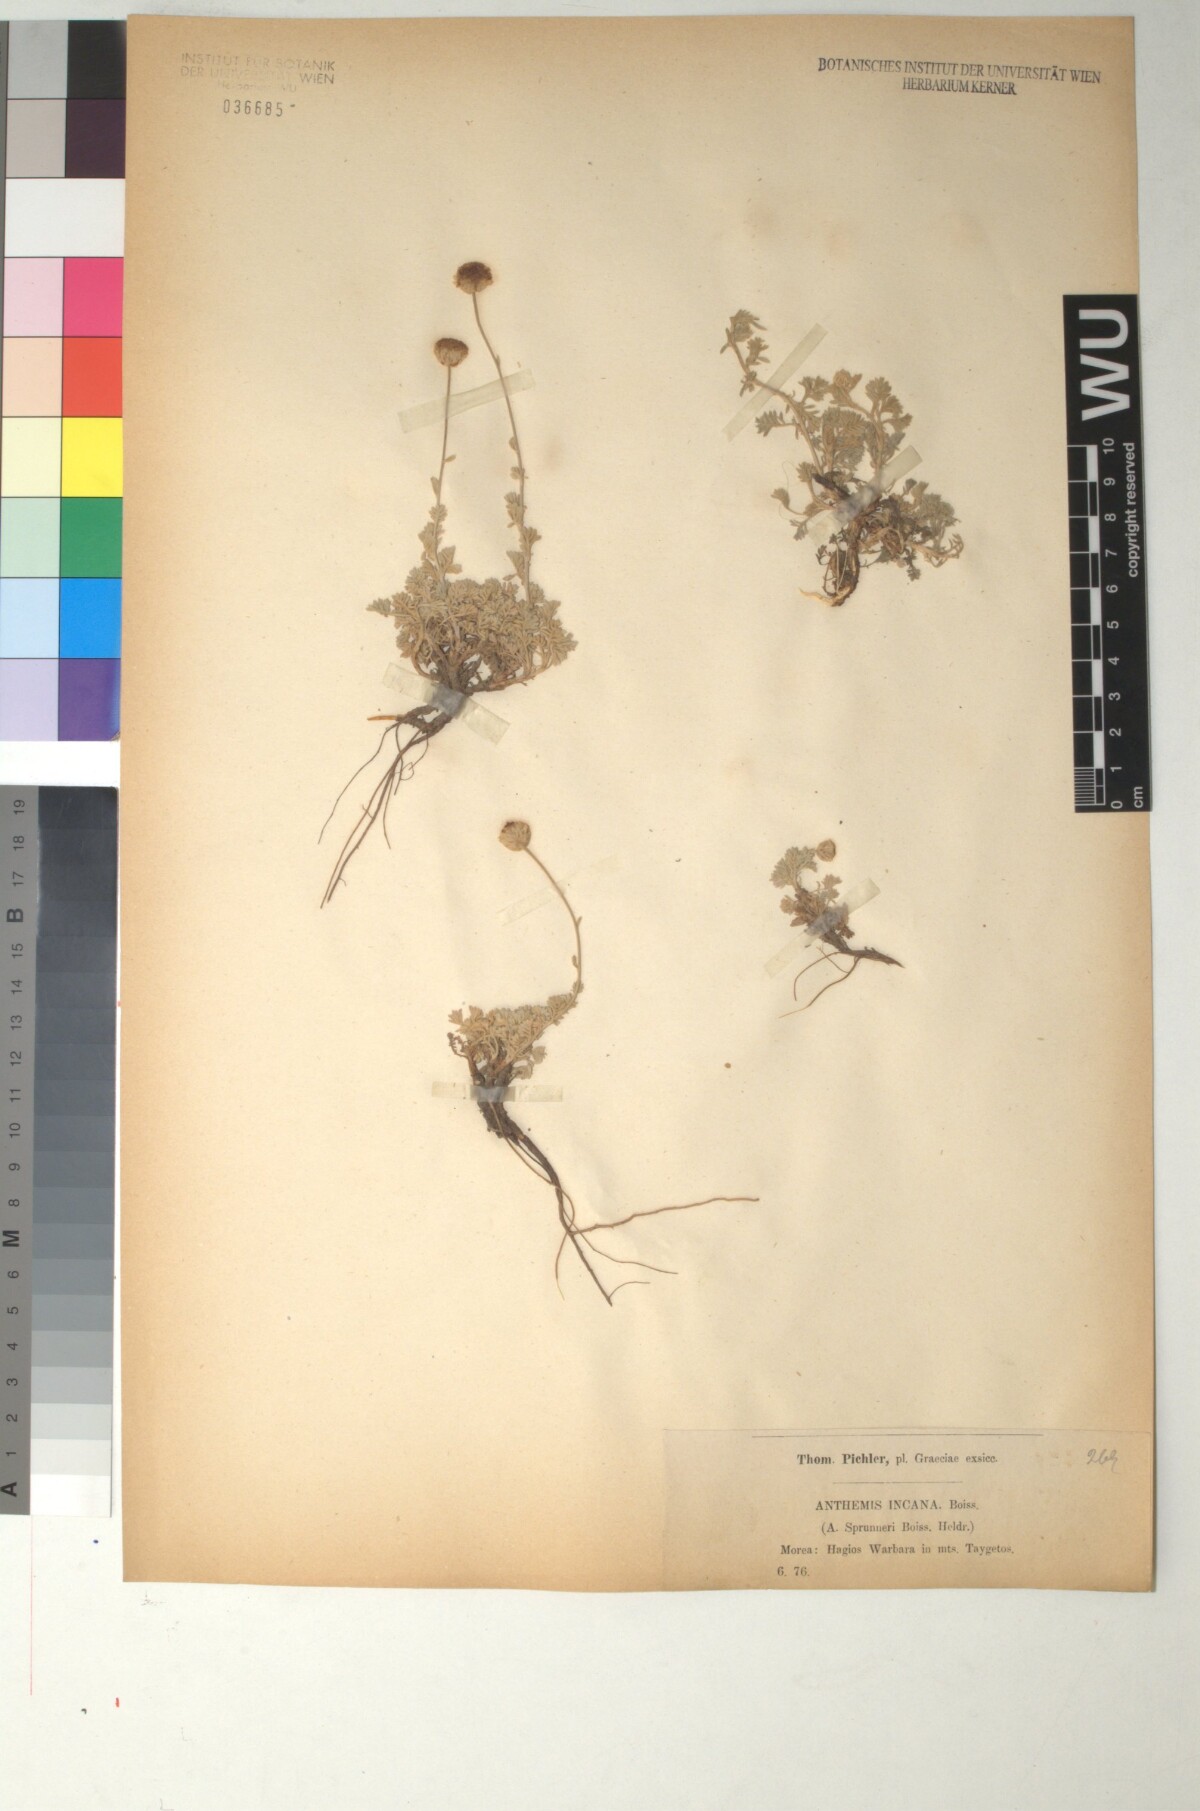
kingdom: Plantae
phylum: Tracheophyta
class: Magnoliopsida
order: Asterales
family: Asteraceae
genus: Anthemis
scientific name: Anthemis spruneri
